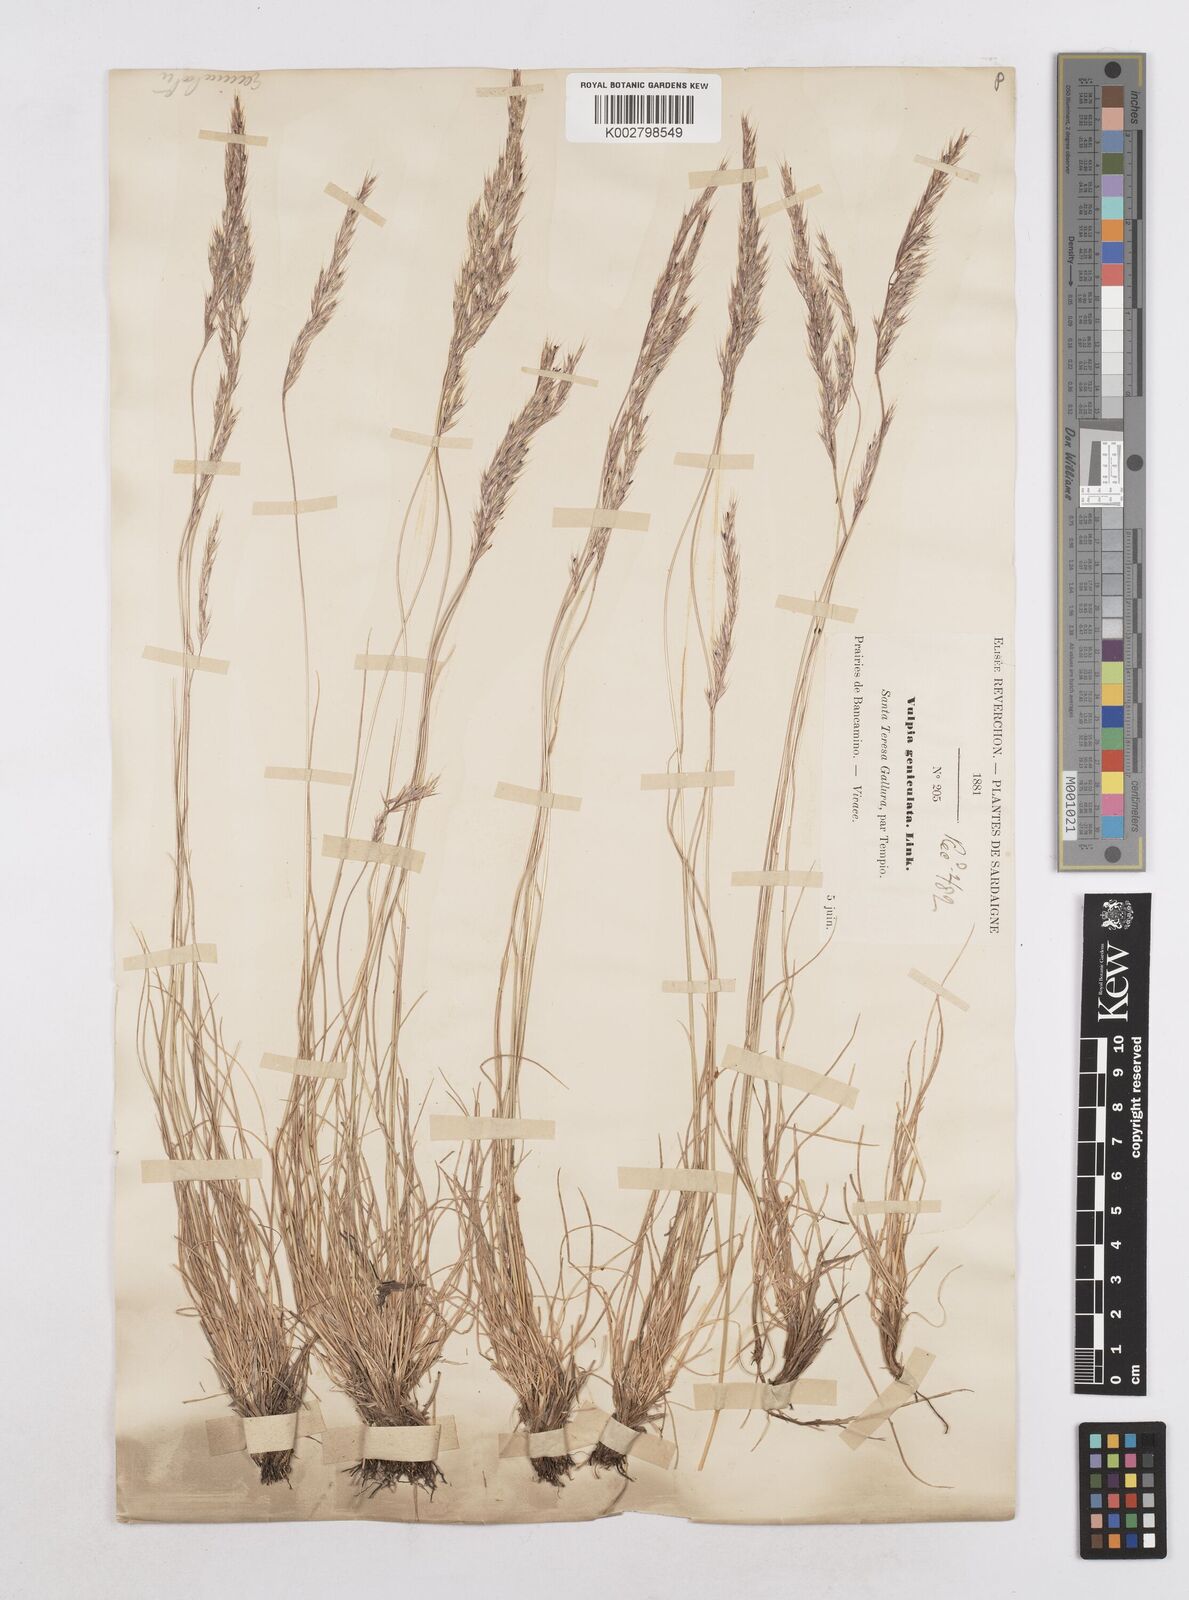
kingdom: Plantae
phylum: Tracheophyta
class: Liliopsida
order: Poales
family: Poaceae
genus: Festuca
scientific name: Festuca geniculata
